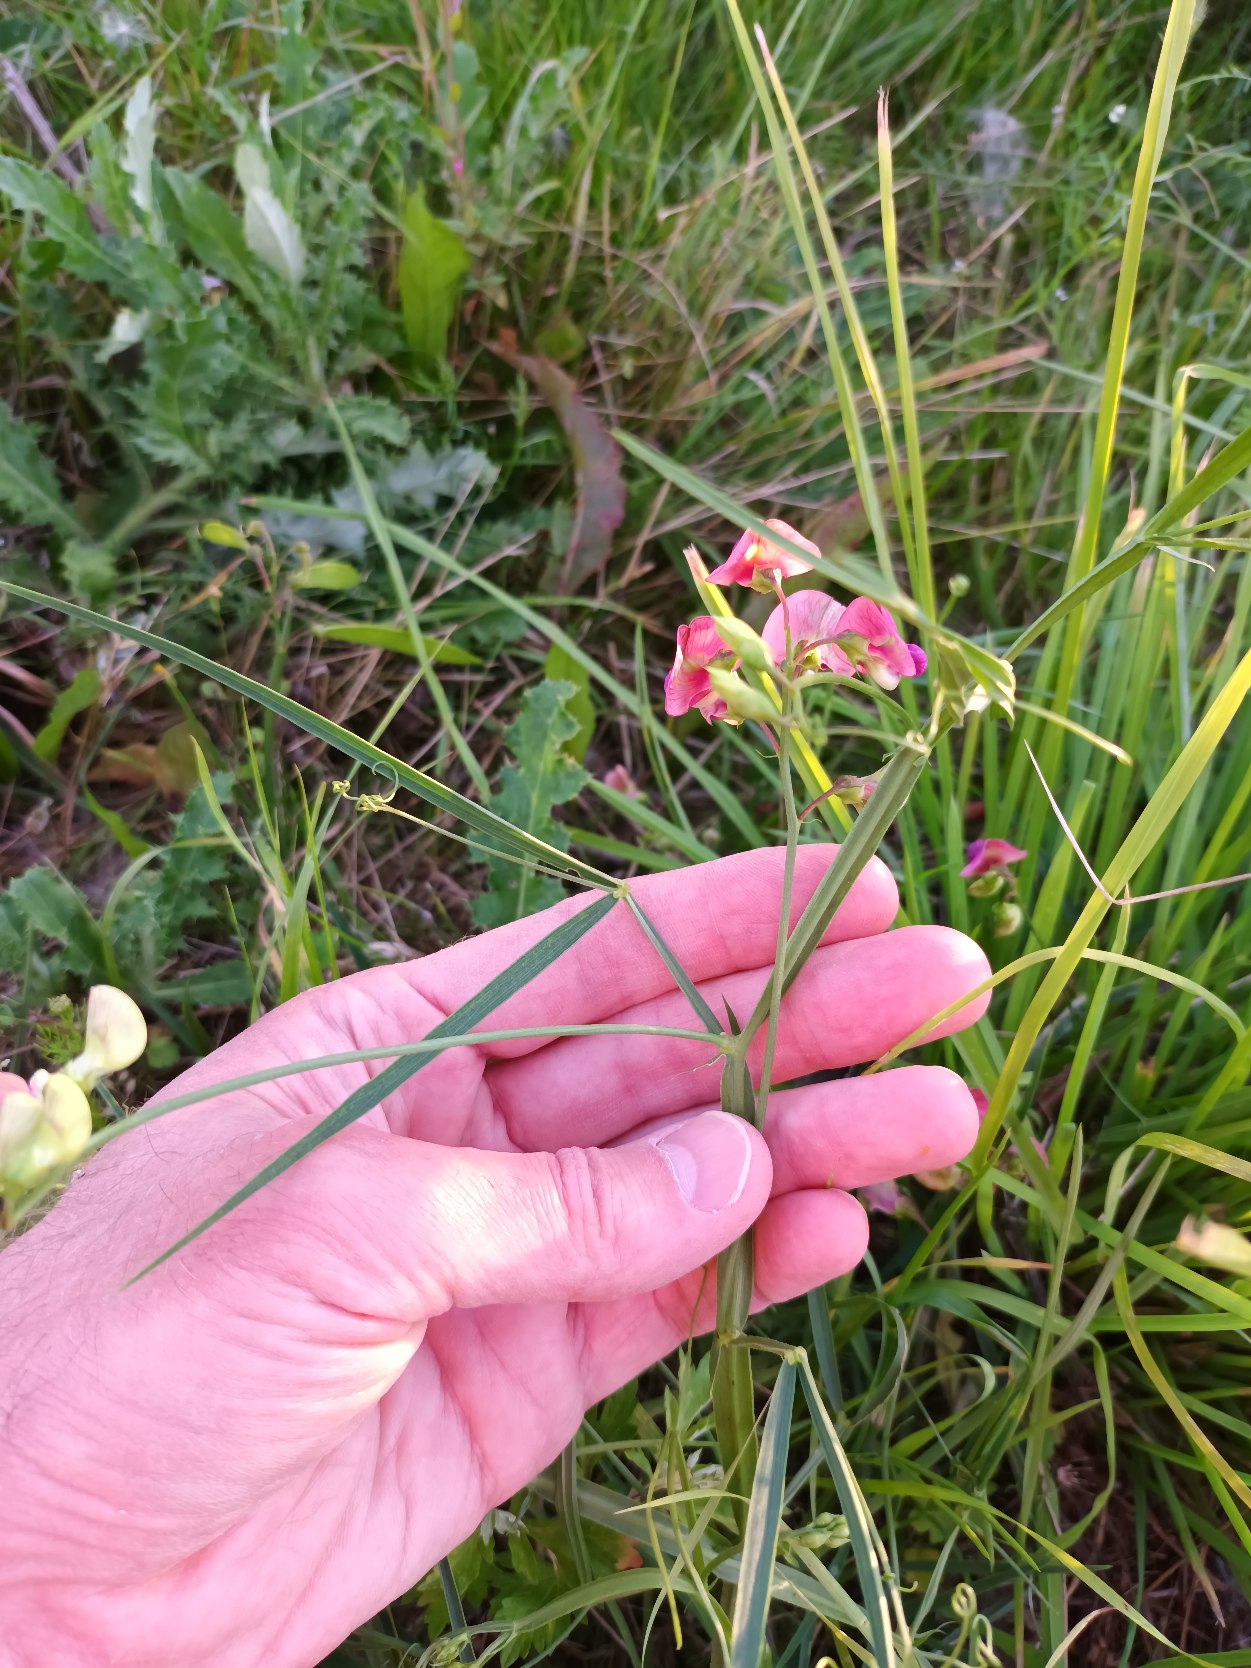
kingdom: Plantae
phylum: Tracheophyta
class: Magnoliopsida
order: Fabales
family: Fabaceae
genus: Lathyrus
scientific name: Lathyrus sylvestris
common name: Skov-fladbælg
